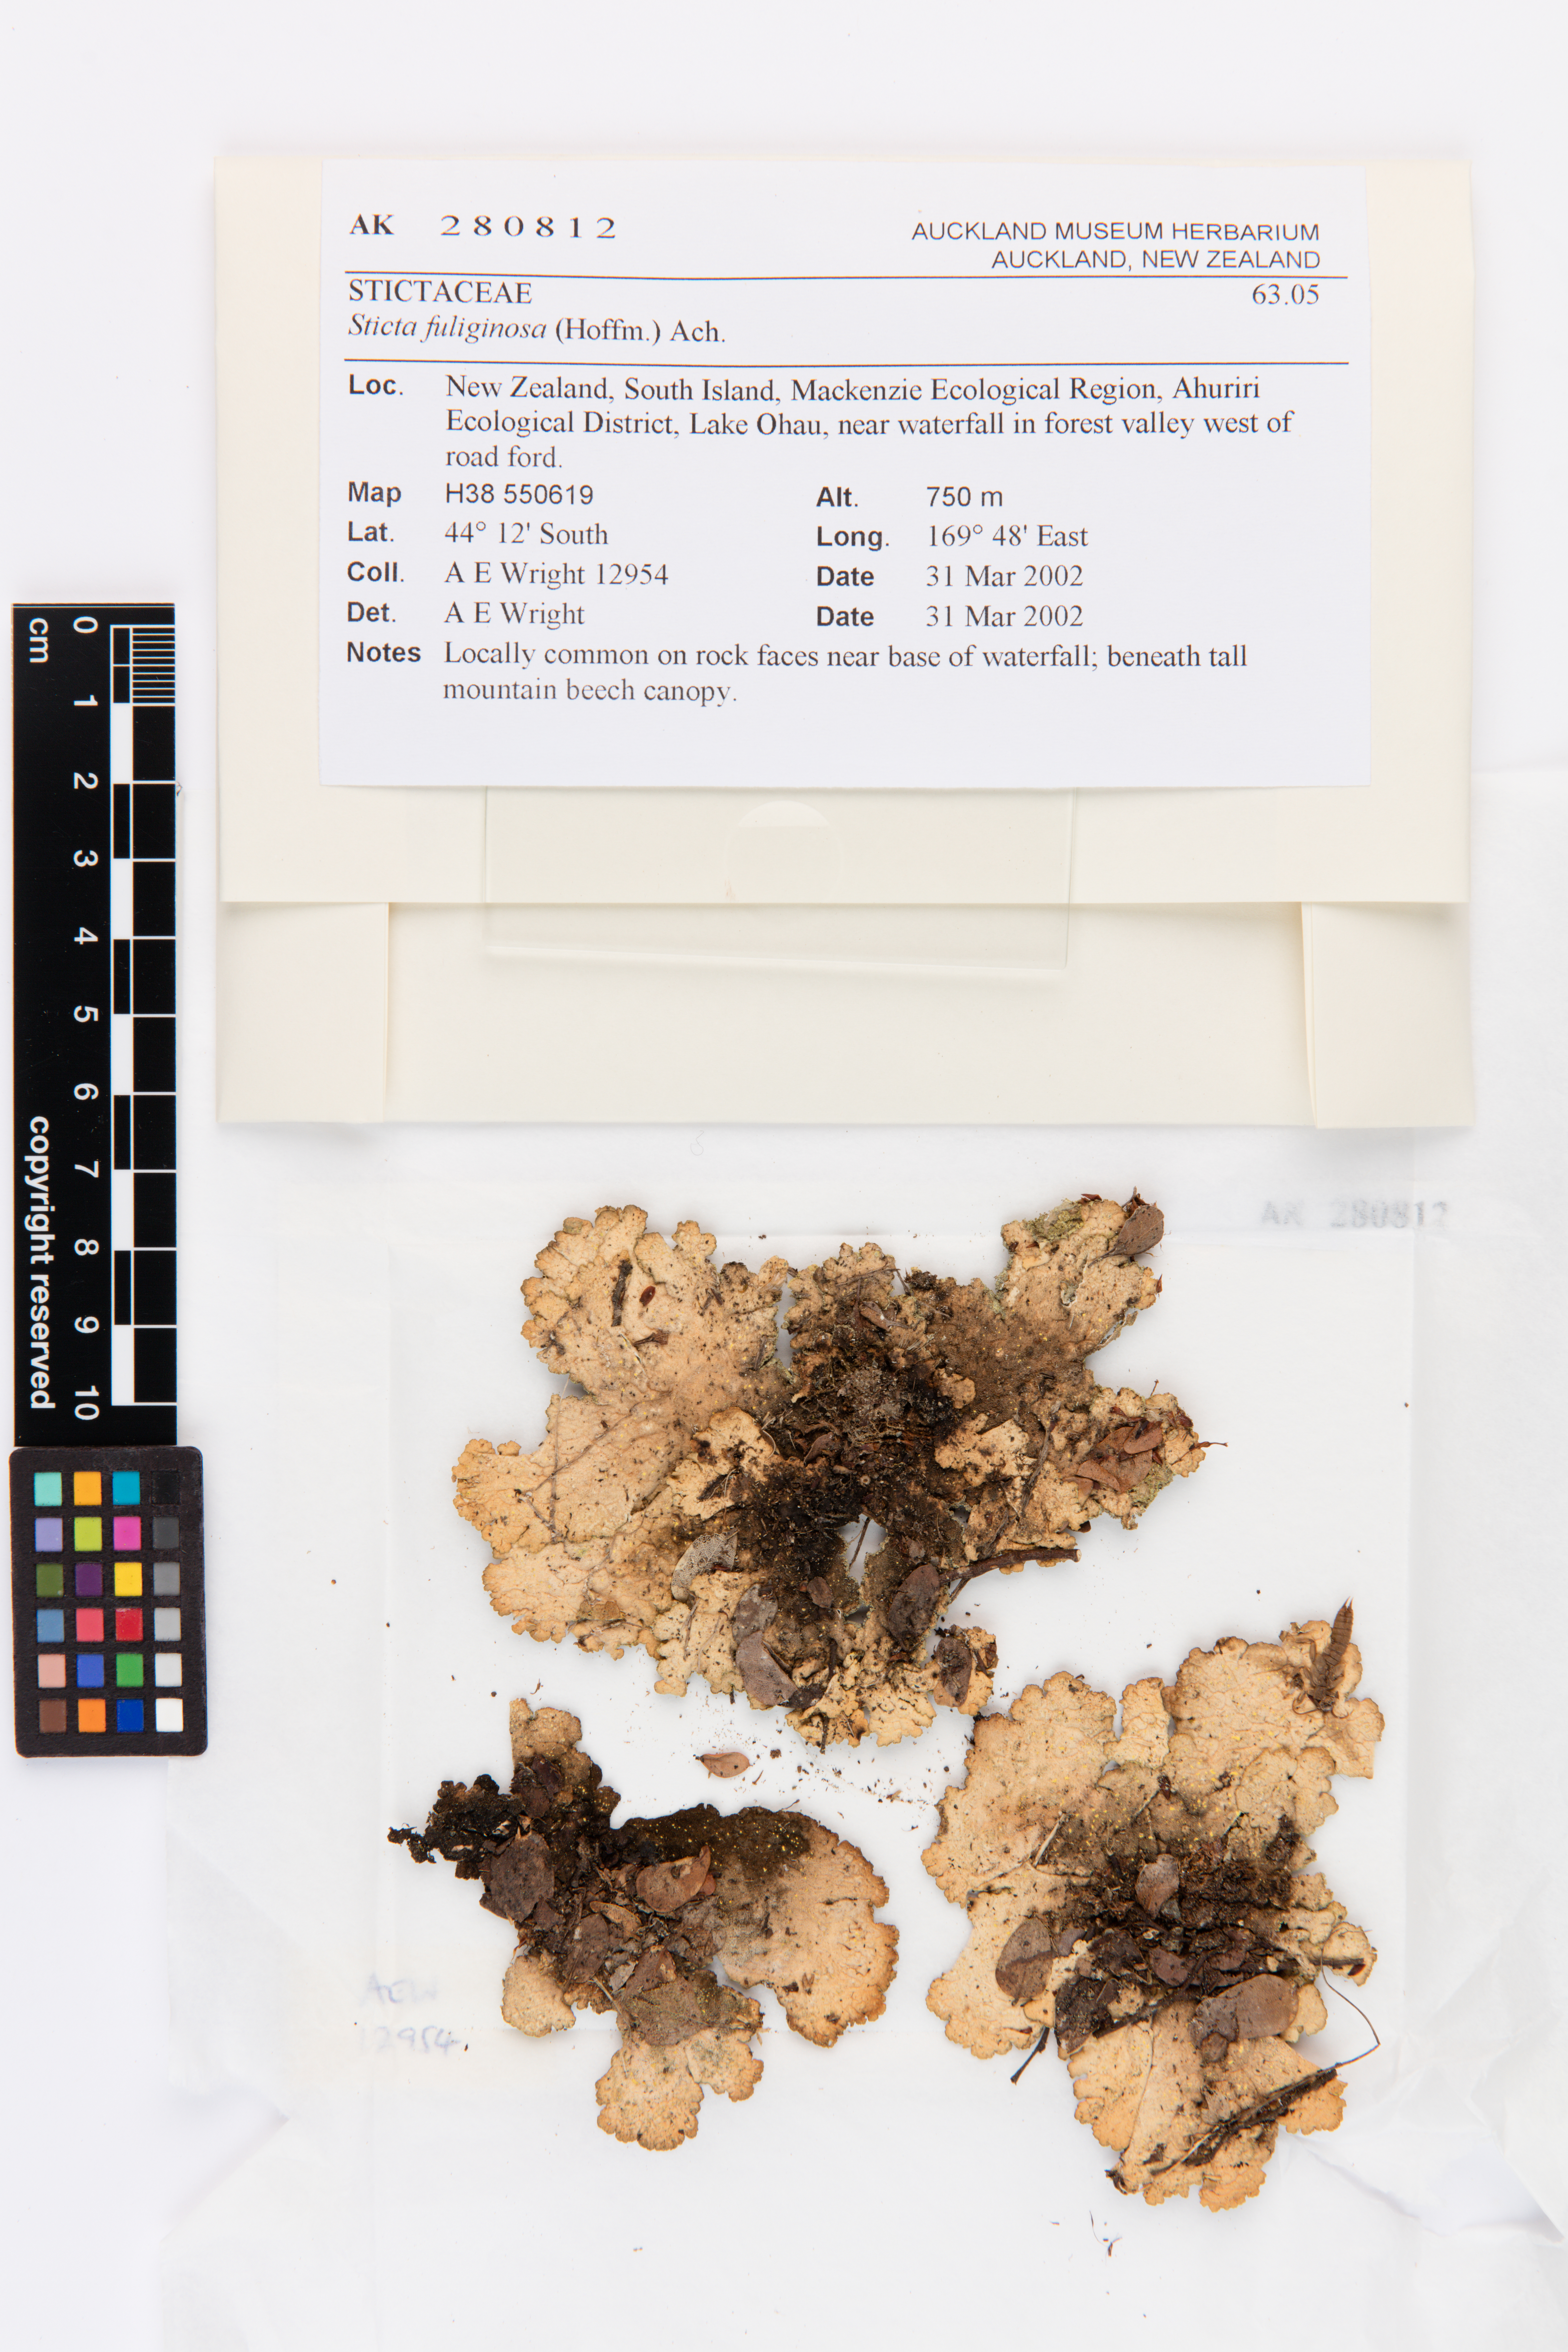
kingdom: Fungi
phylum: Ascomycota
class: Lecanoromycetes
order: Peltigerales
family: Lobariaceae
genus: Sticta
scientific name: Sticta fuliginosa
